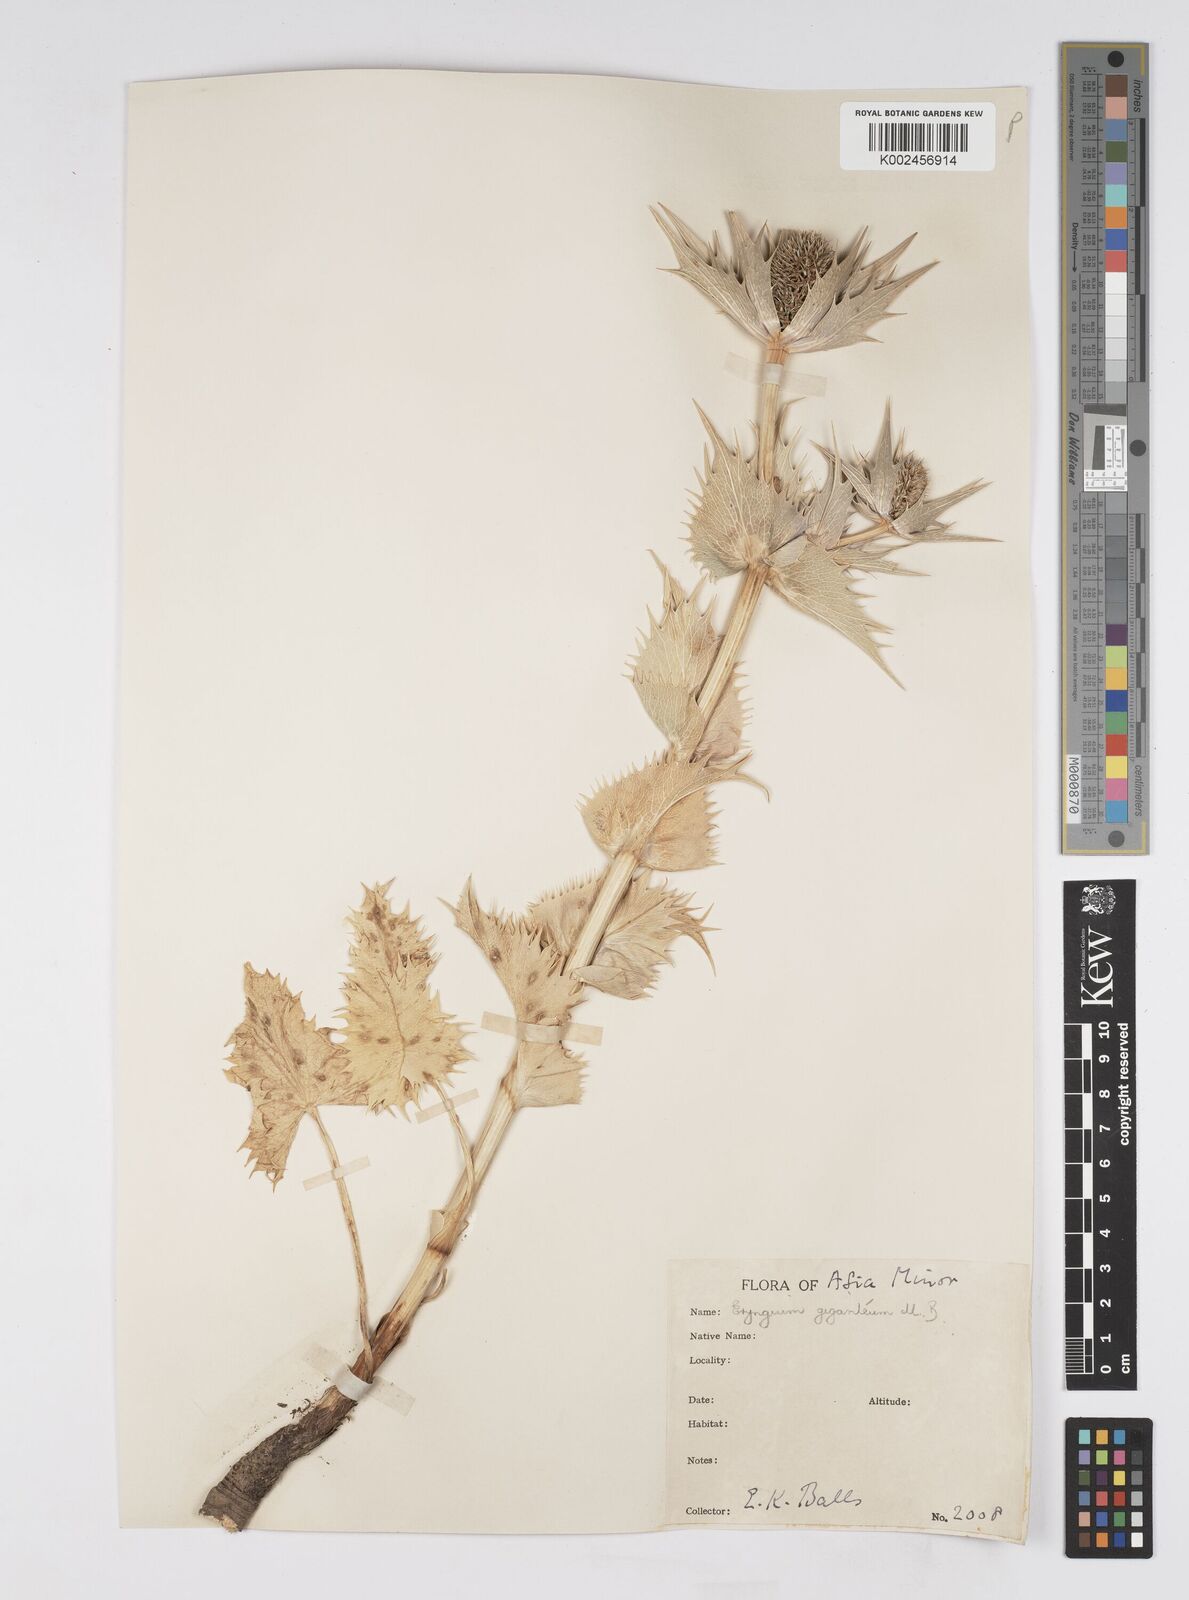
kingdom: Plantae
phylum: Tracheophyta
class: Magnoliopsida
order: Apiales
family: Apiaceae
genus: Eryngium
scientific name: Eryngium giganteum
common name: Tall eryngo
